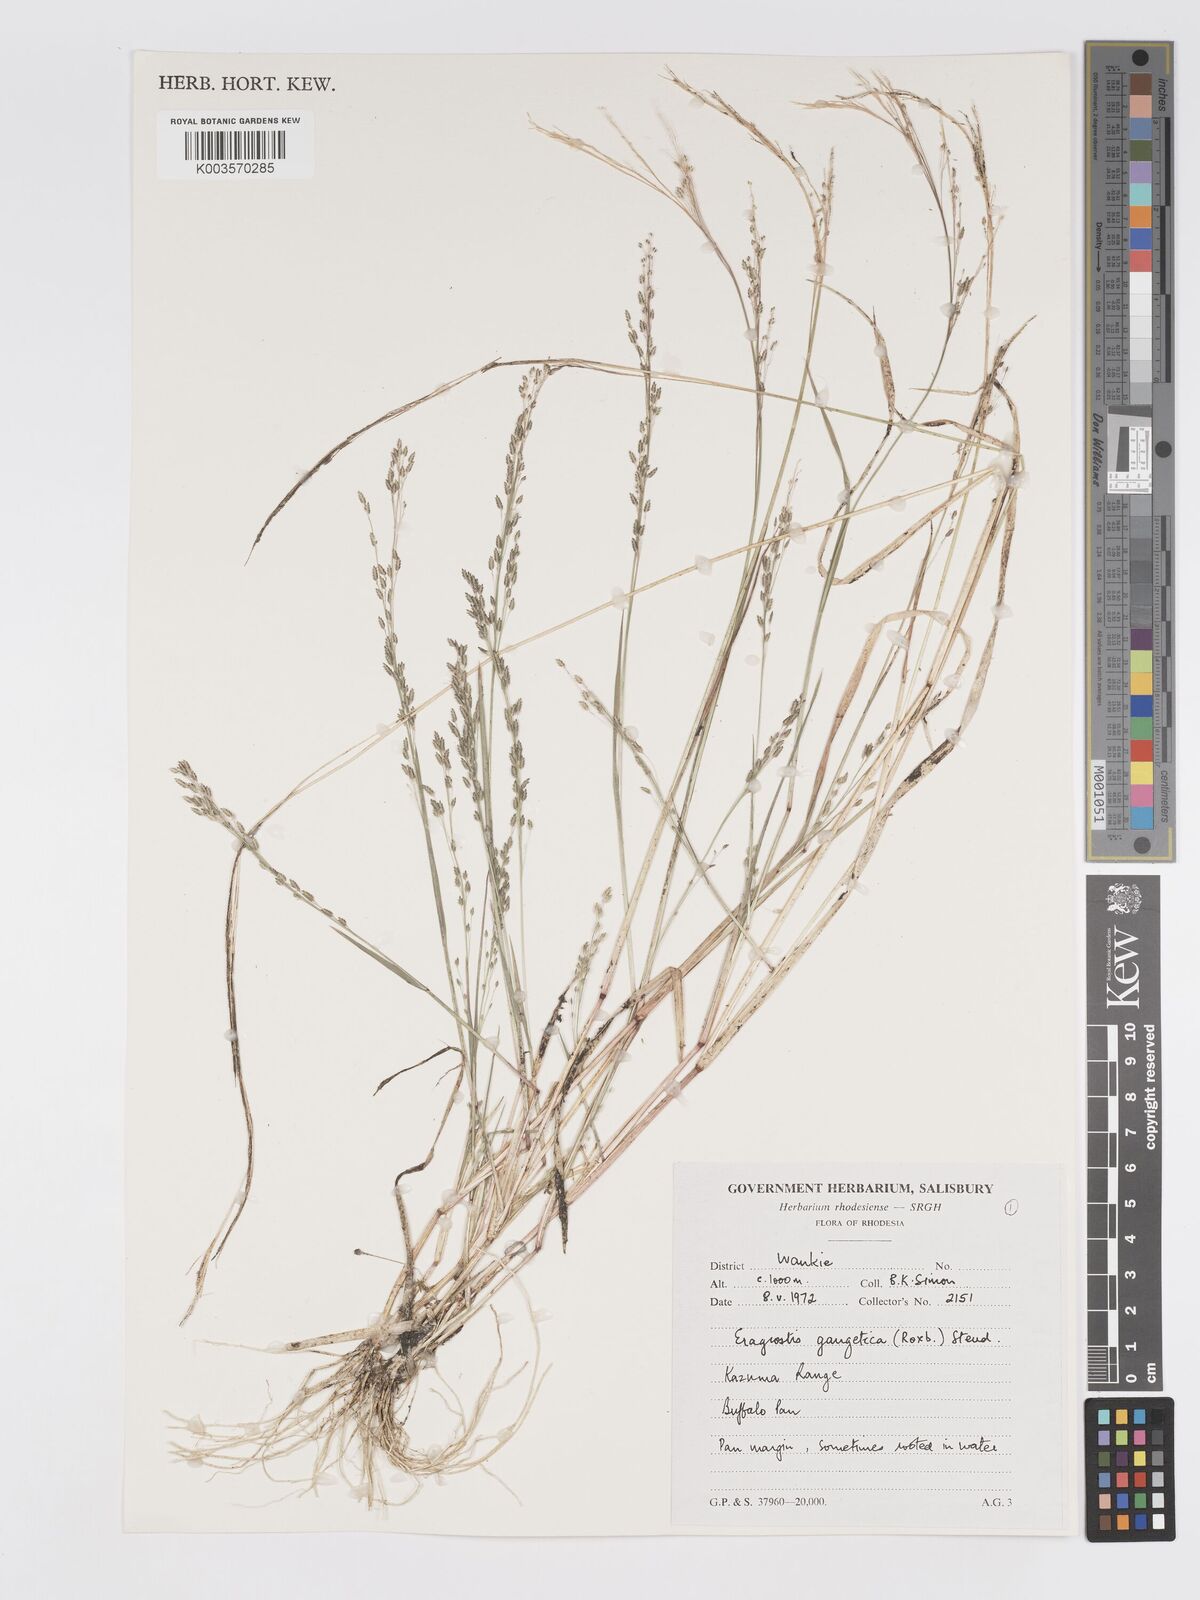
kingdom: Plantae
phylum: Tracheophyta
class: Liliopsida
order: Poales
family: Poaceae
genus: Eragrostis
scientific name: Eragrostis gangetica
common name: Slimflower lovegrass
